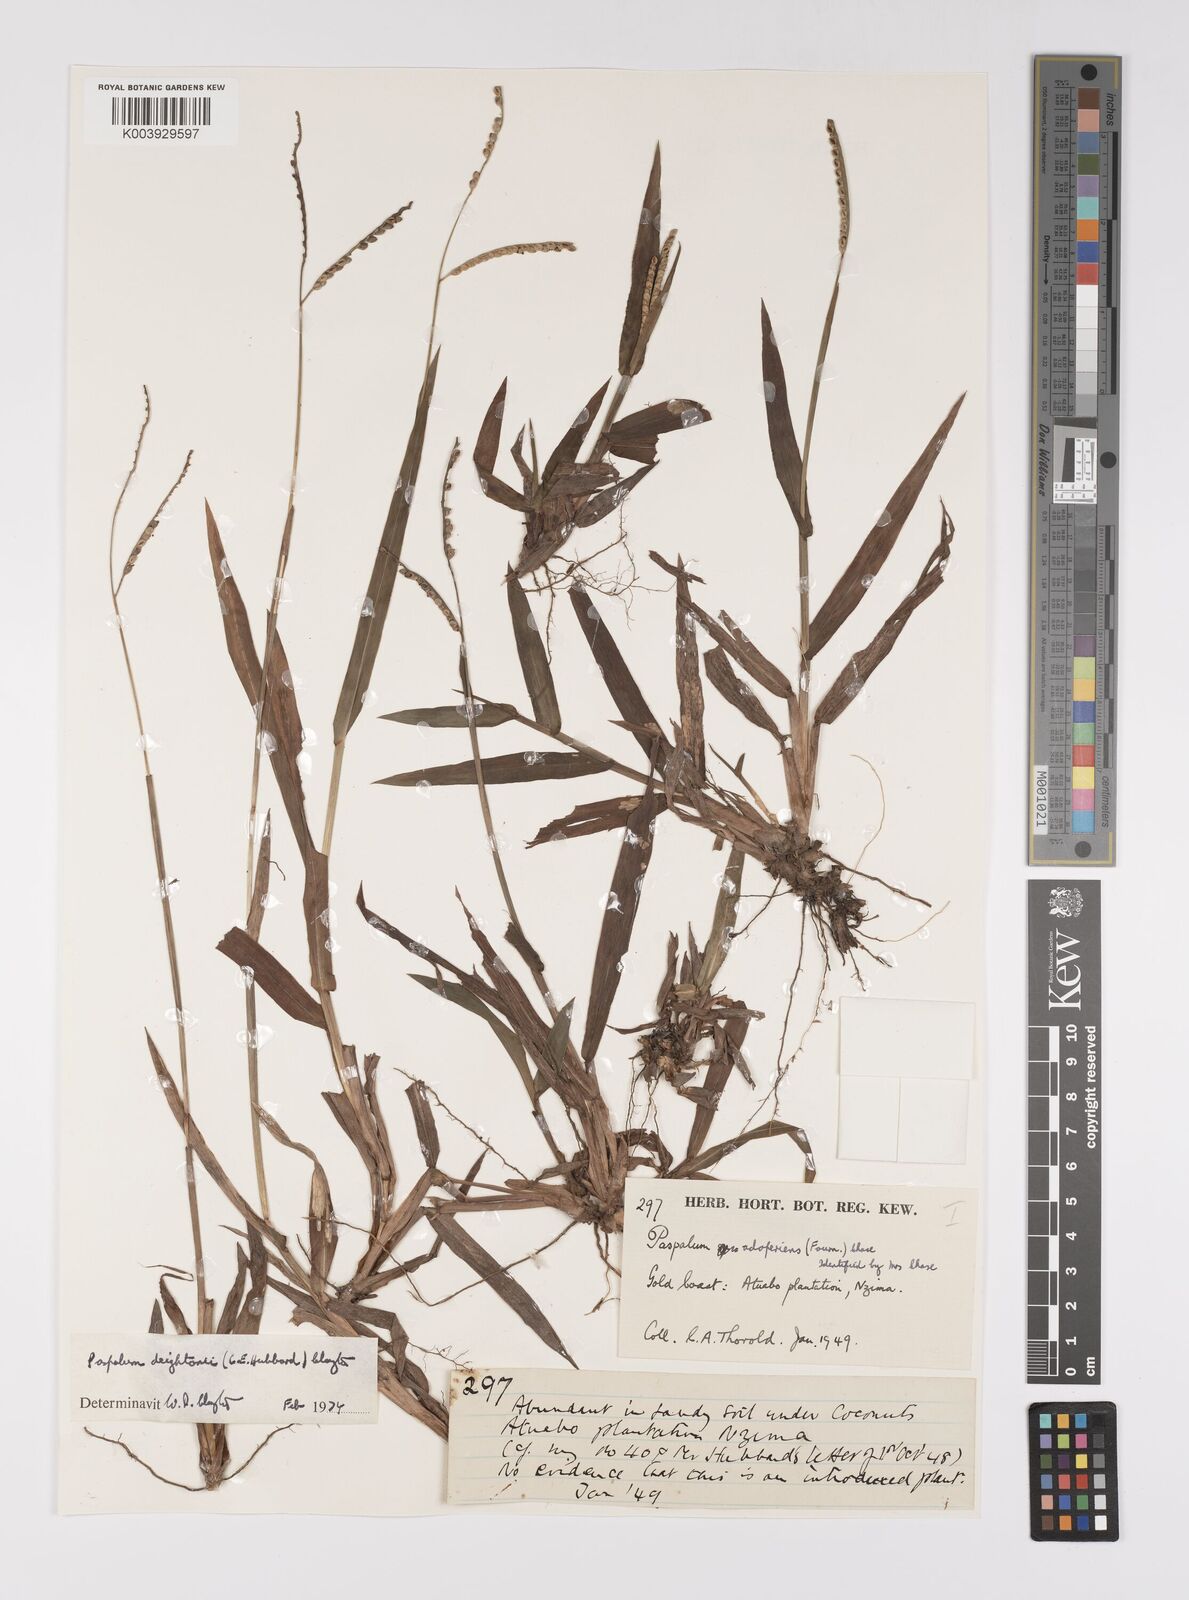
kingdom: Plantae
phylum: Tracheophyta
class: Liliopsida
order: Poales
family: Poaceae
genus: Paspalum
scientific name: Paspalum scrobiculatum
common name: Kodo millet
